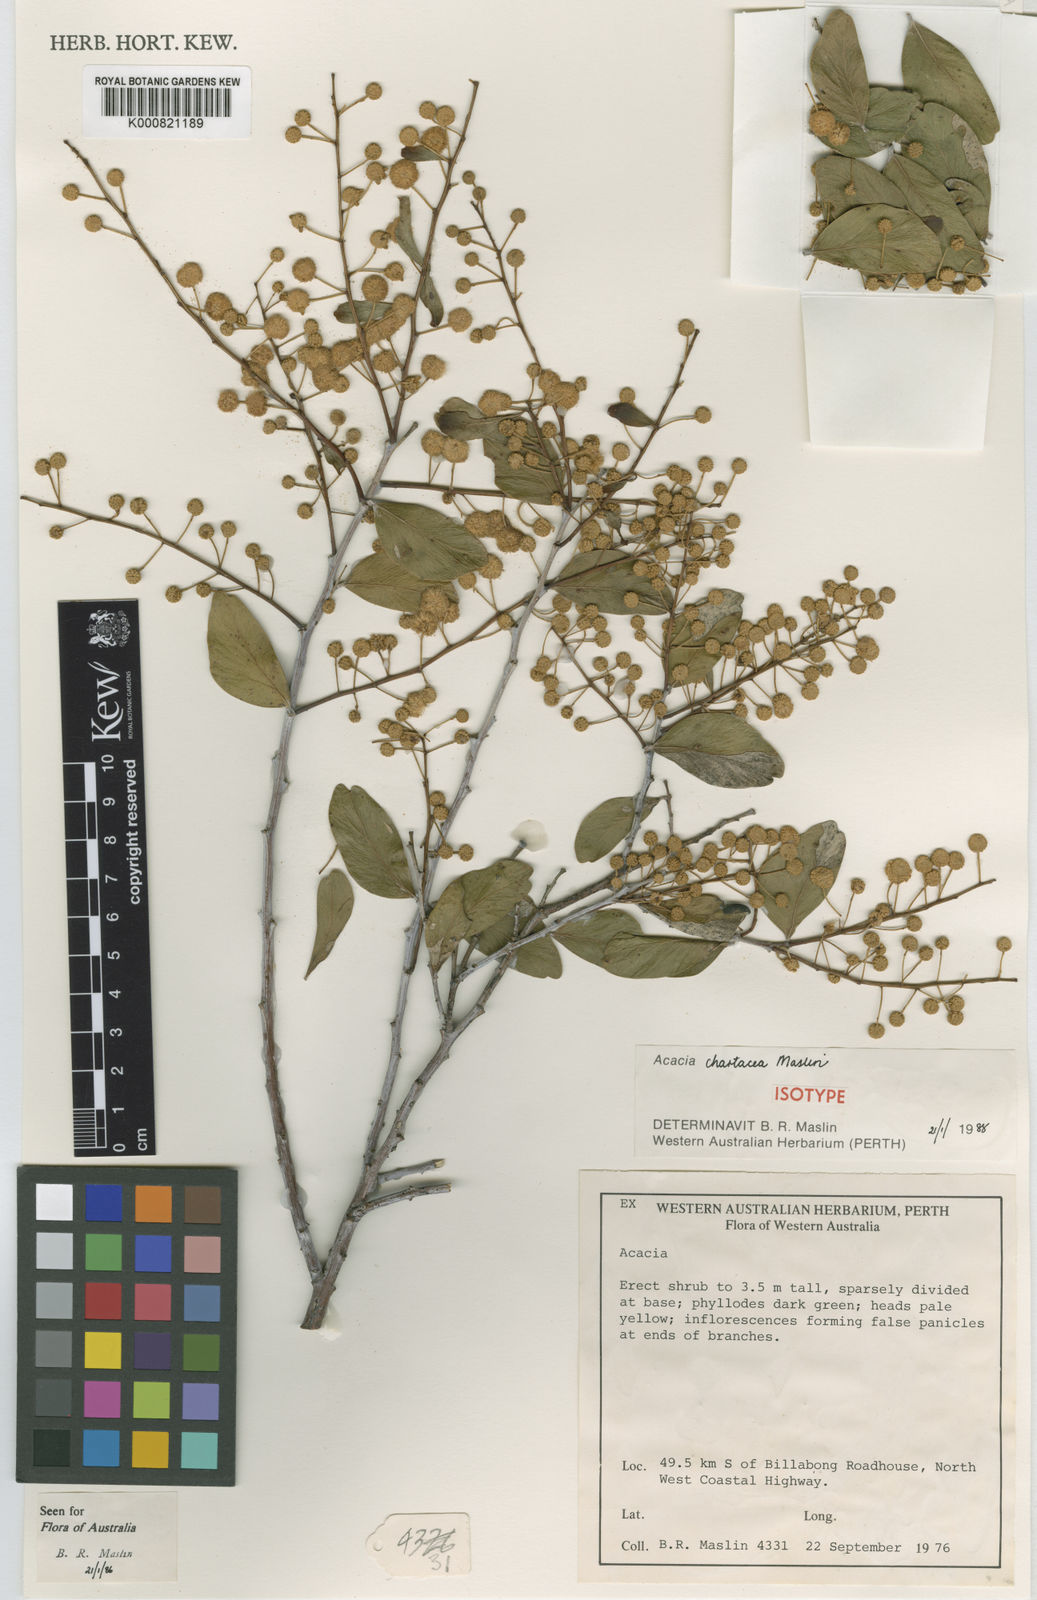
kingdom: Plantae
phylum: Tracheophyta
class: Magnoliopsida
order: Fabales
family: Fabaceae
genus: Acacia
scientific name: Acacia chartacea
